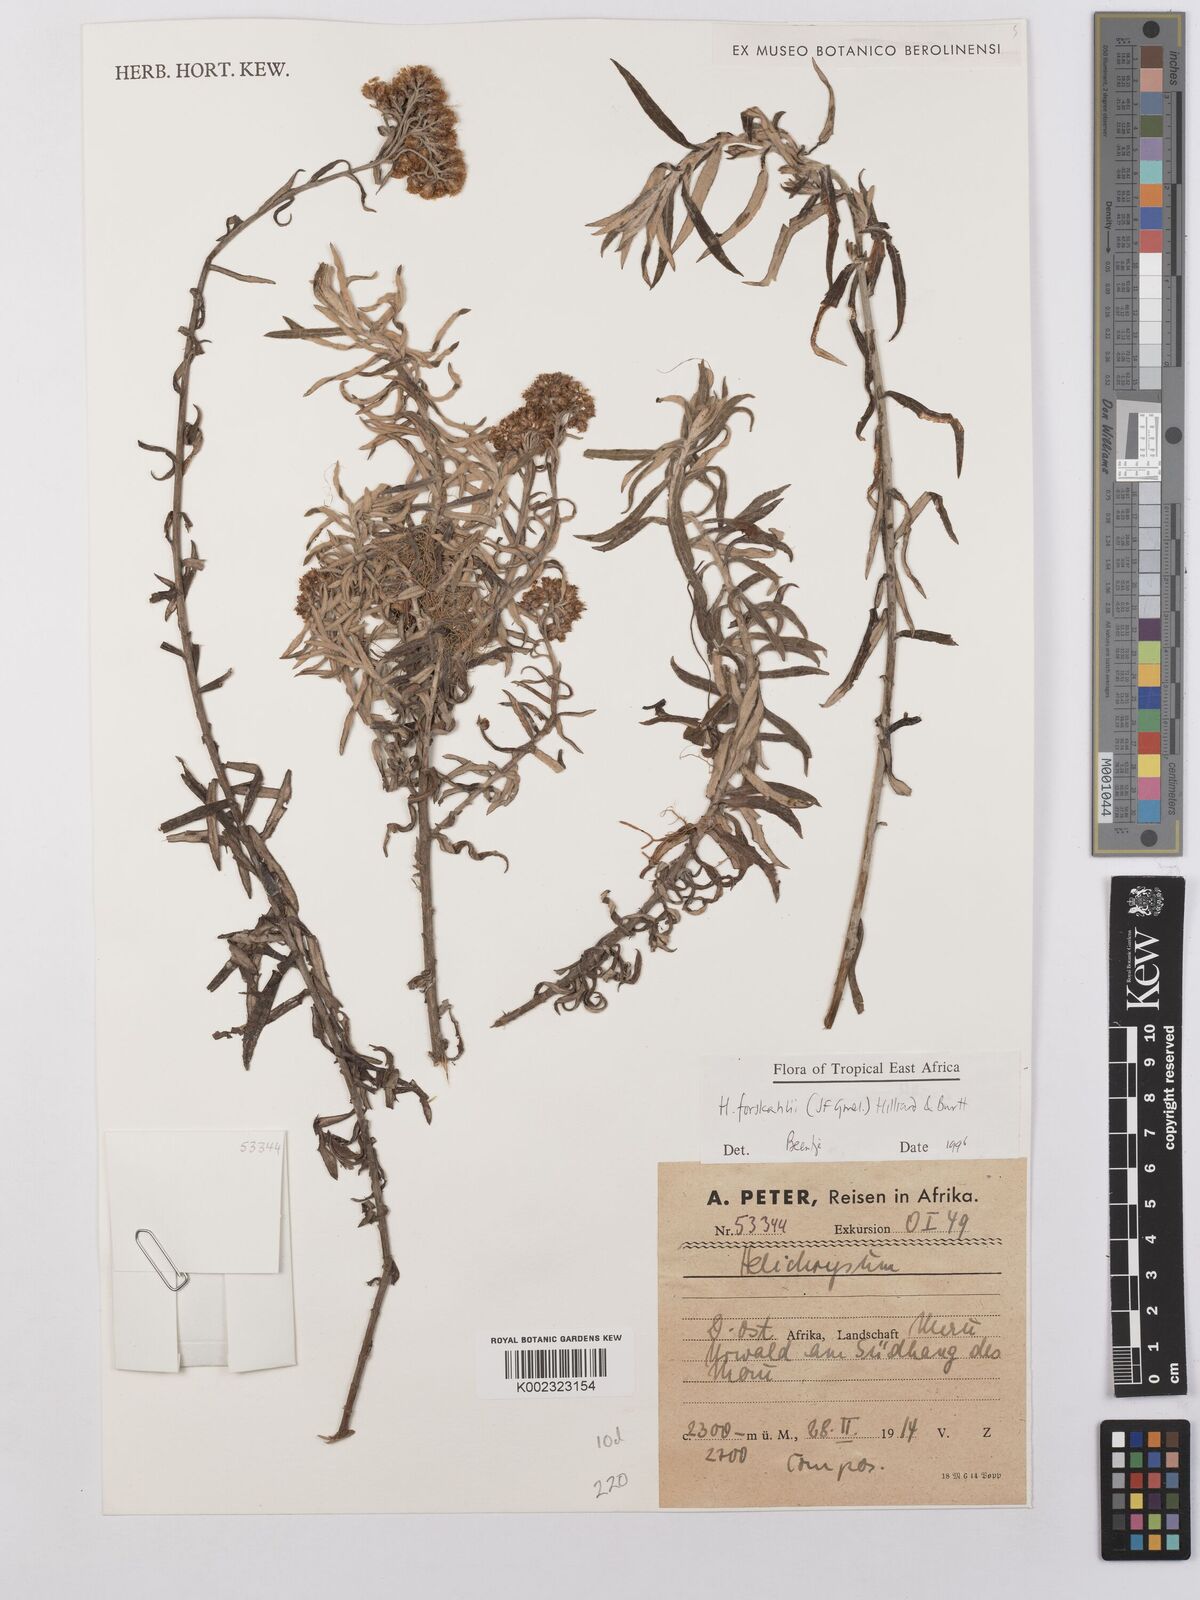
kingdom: Plantae
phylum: Tracheophyta
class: Magnoliopsida
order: Asterales
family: Asteraceae
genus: Helichrysum
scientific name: Helichrysum forskahlii
